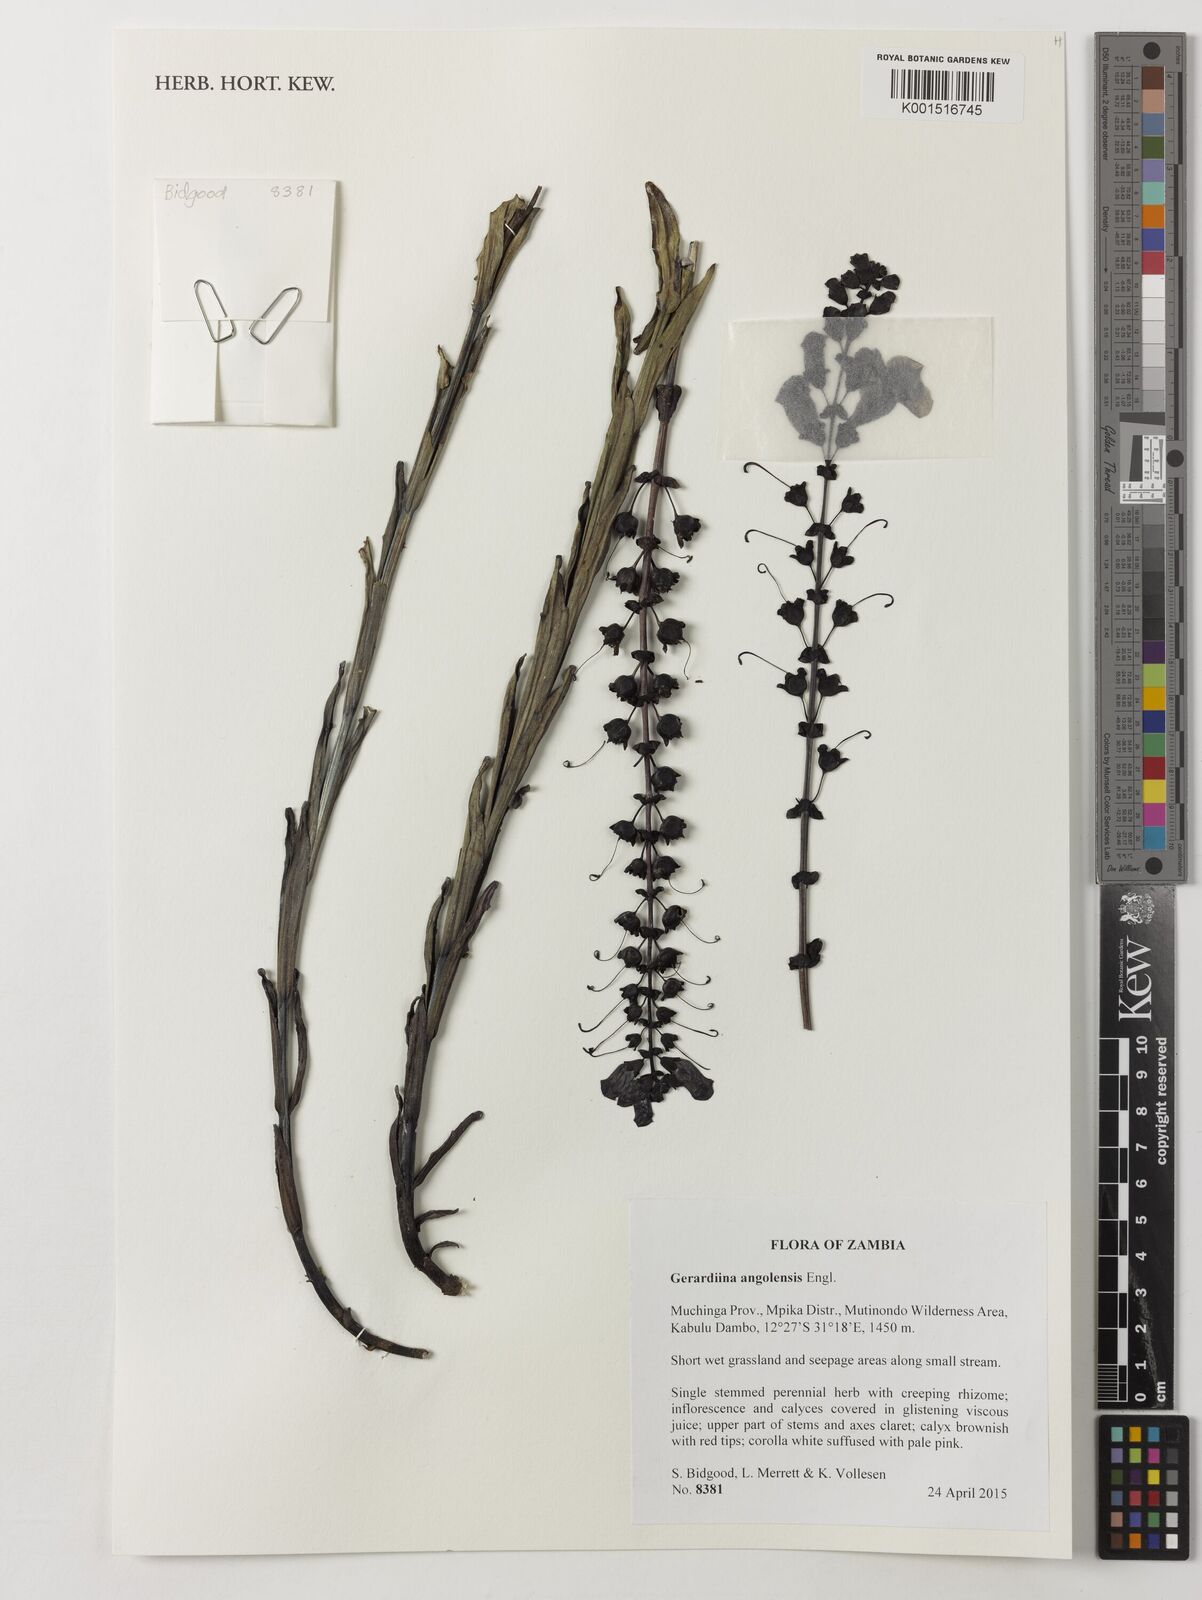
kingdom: Plantae
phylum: Tracheophyta
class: Magnoliopsida
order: Lamiales
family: Orobanchaceae
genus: Gerardiina
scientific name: Gerardiina angolensis
